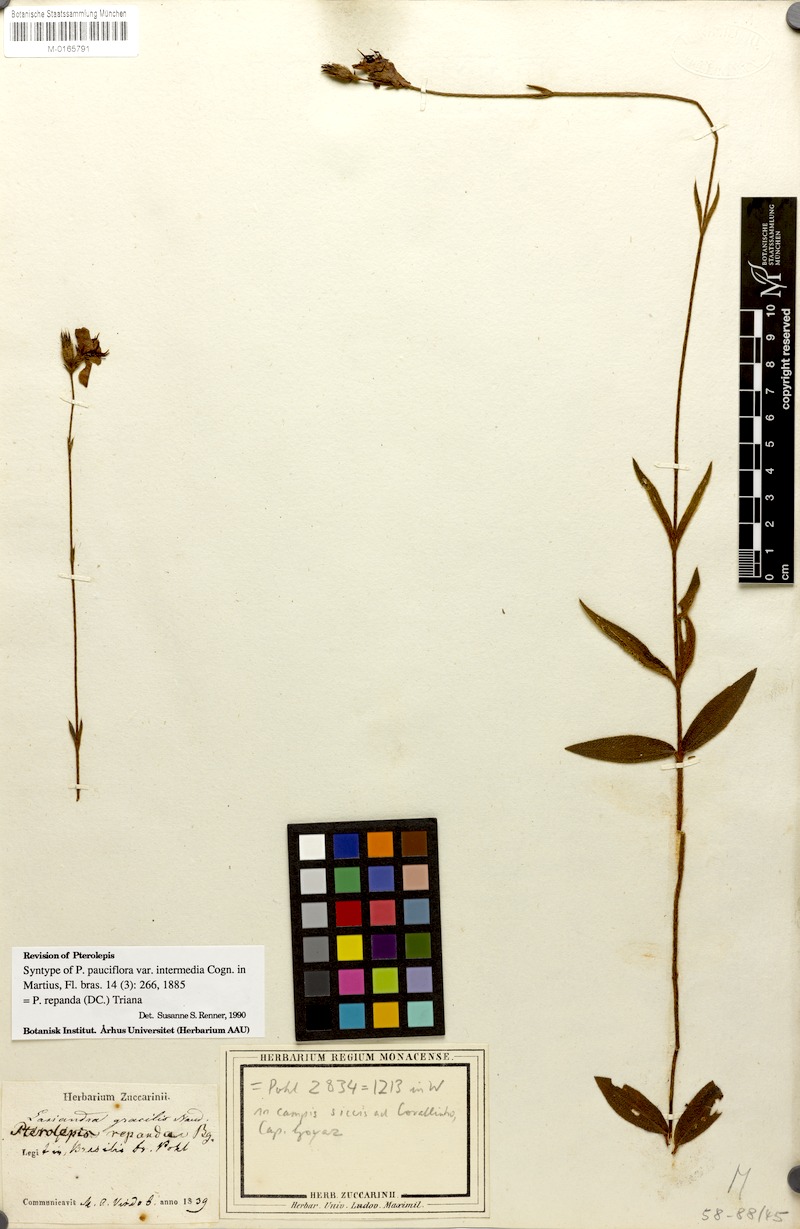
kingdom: Plantae
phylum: Tracheophyta
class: Magnoliopsida
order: Myrtales
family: Melastomataceae
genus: Pterolepis
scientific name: Pterolepis repanda
